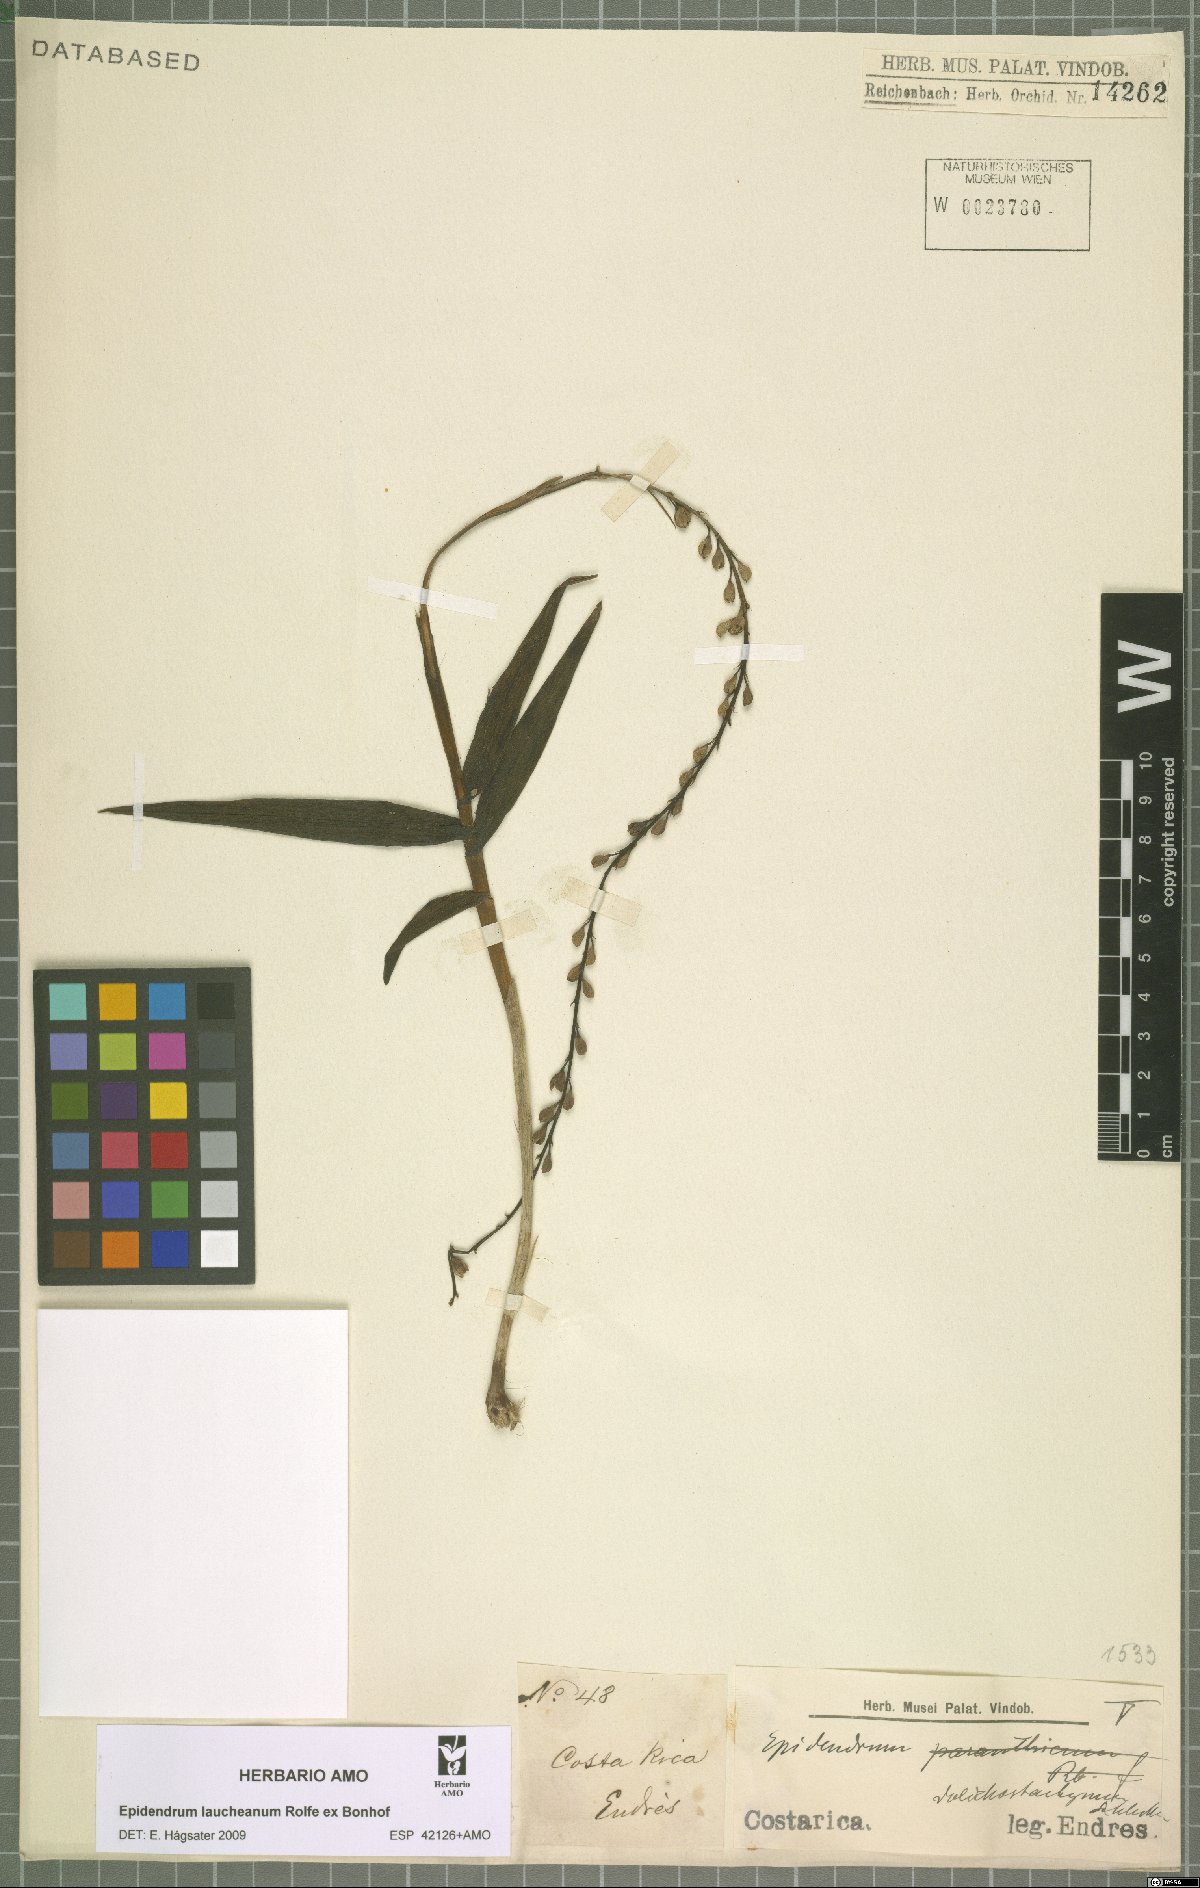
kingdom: Plantae
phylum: Tracheophyta
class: Liliopsida
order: Asparagales
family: Orchidaceae
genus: Epidendrum
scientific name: Epidendrum laucheanum
